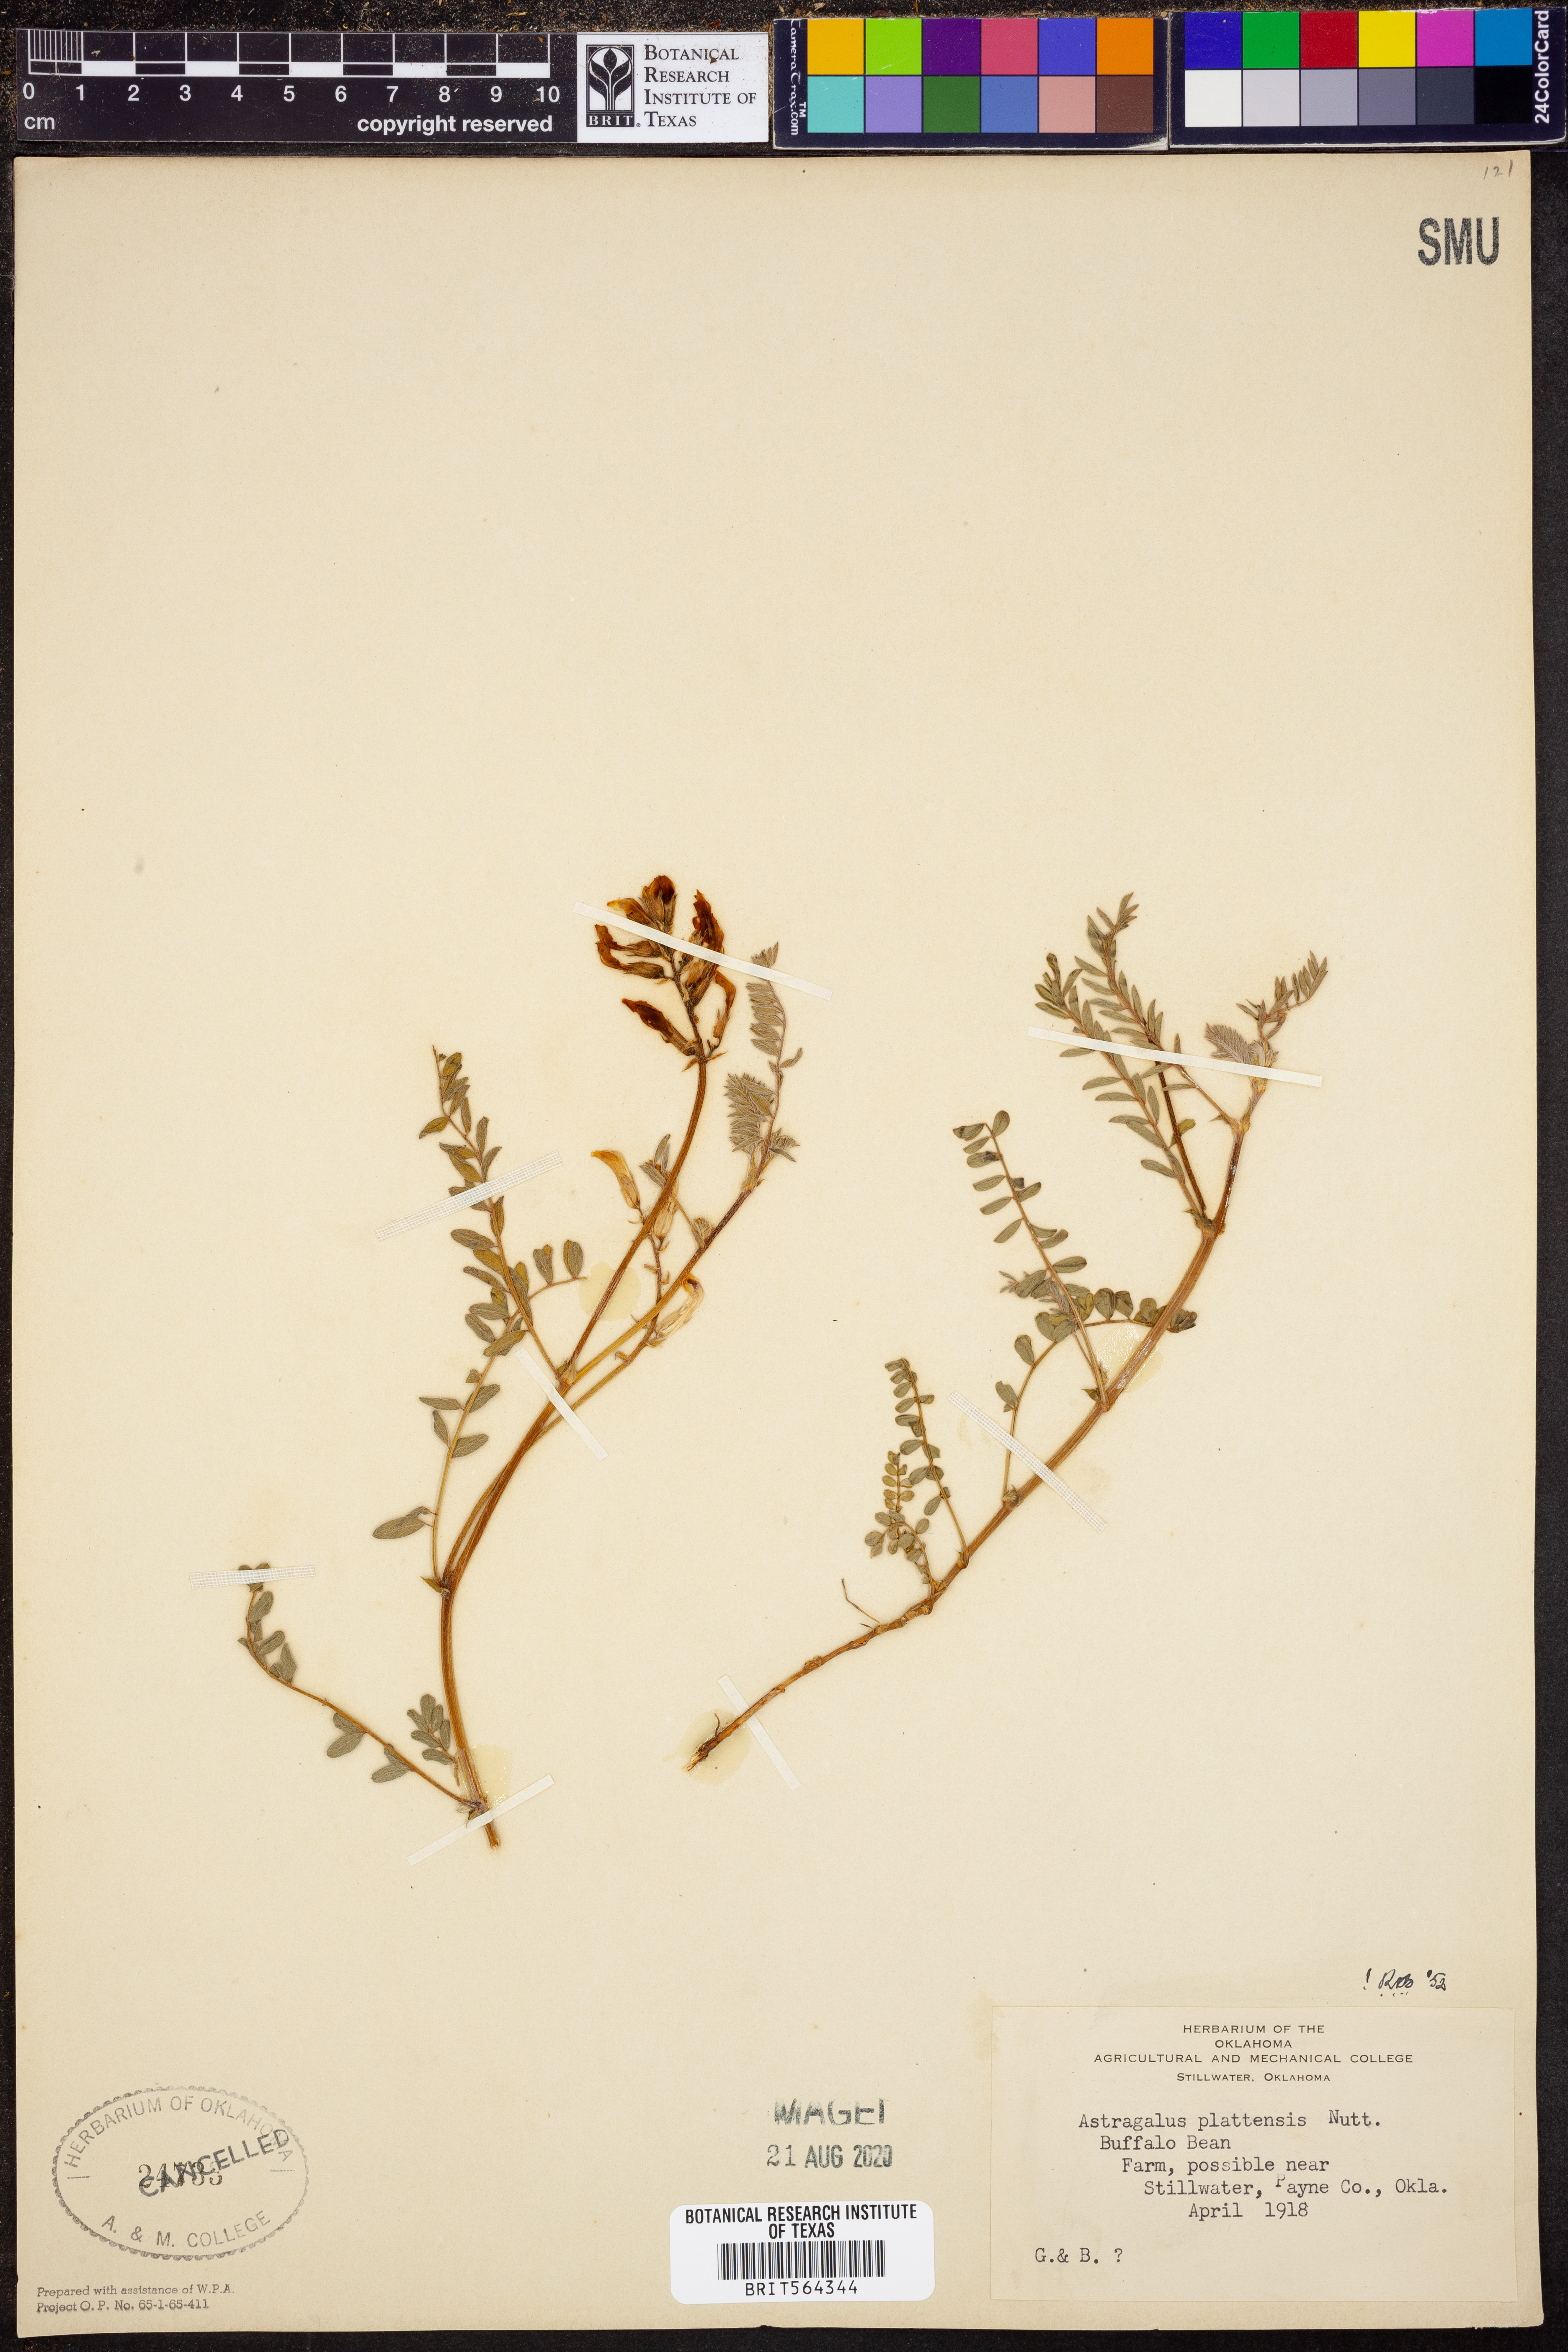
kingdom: Plantae
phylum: Tracheophyta
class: Magnoliopsida
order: Fabales
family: Fabaceae
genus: Astragalus
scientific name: Astragalus plattensis
